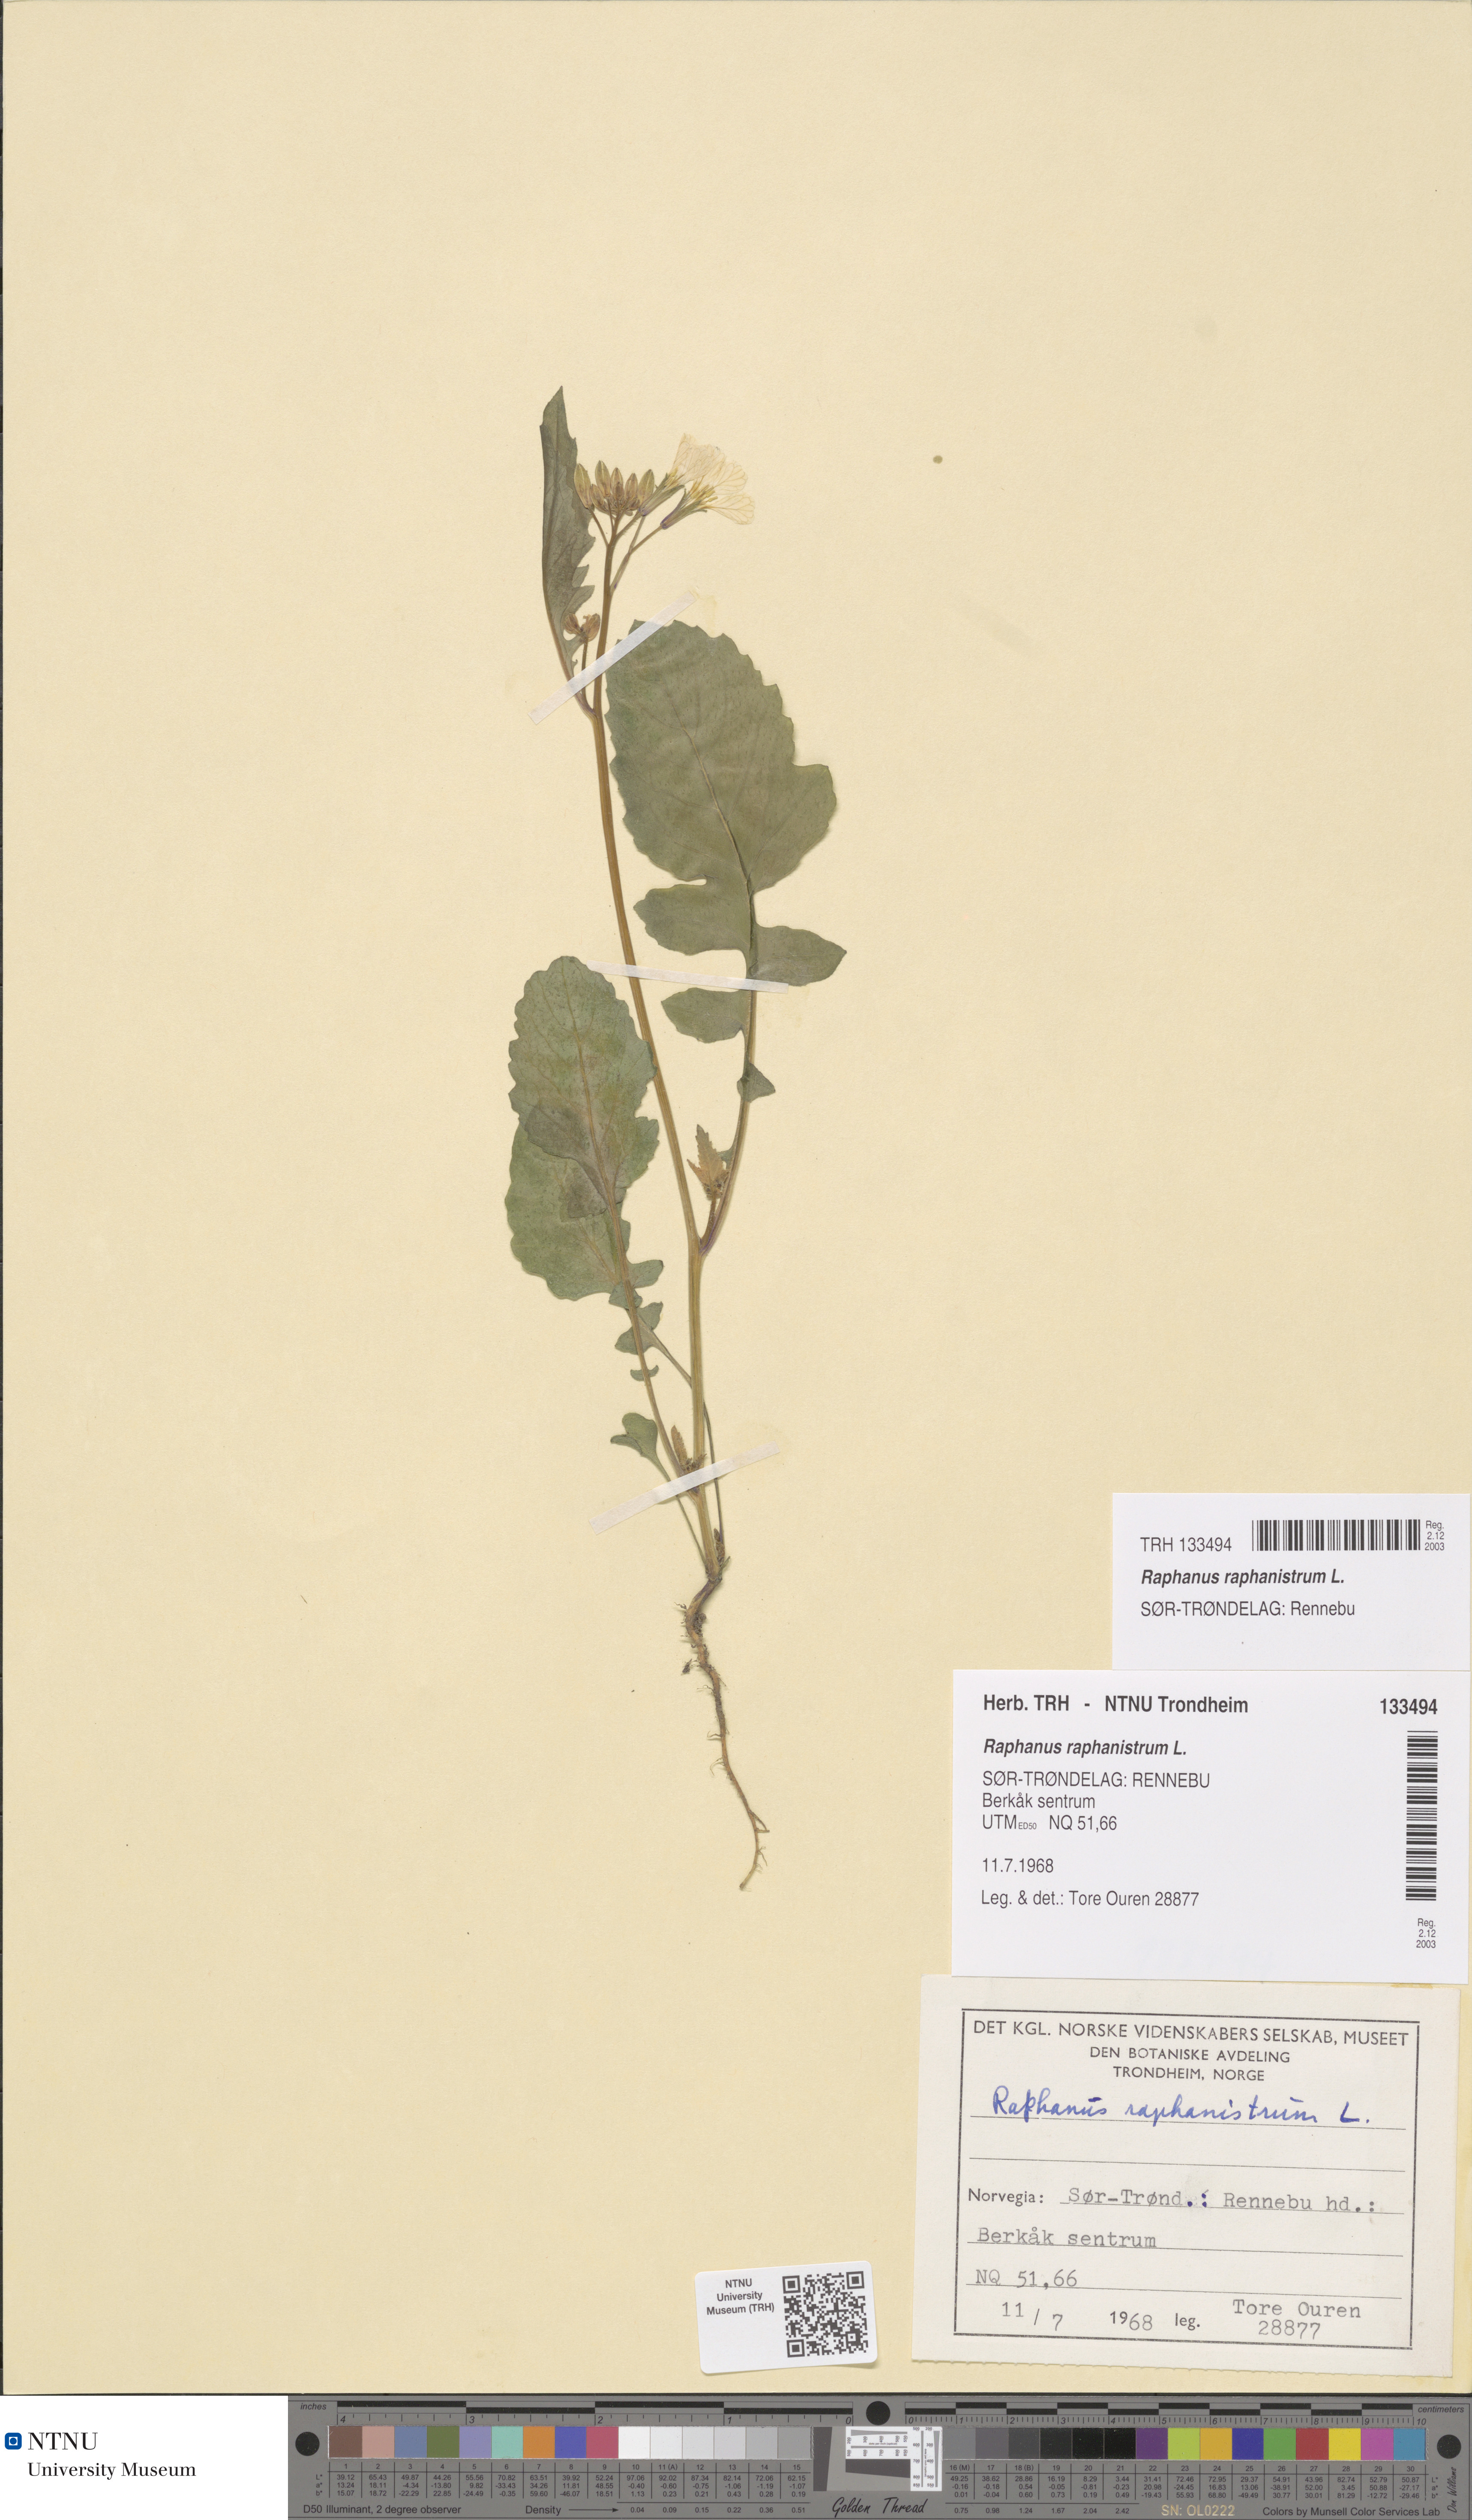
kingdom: Plantae
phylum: Tracheophyta
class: Magnoliopsida
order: Brassicales
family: Brassicaceae
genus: Raphanus
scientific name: Raphanus raphanistrum
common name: Wild radish
